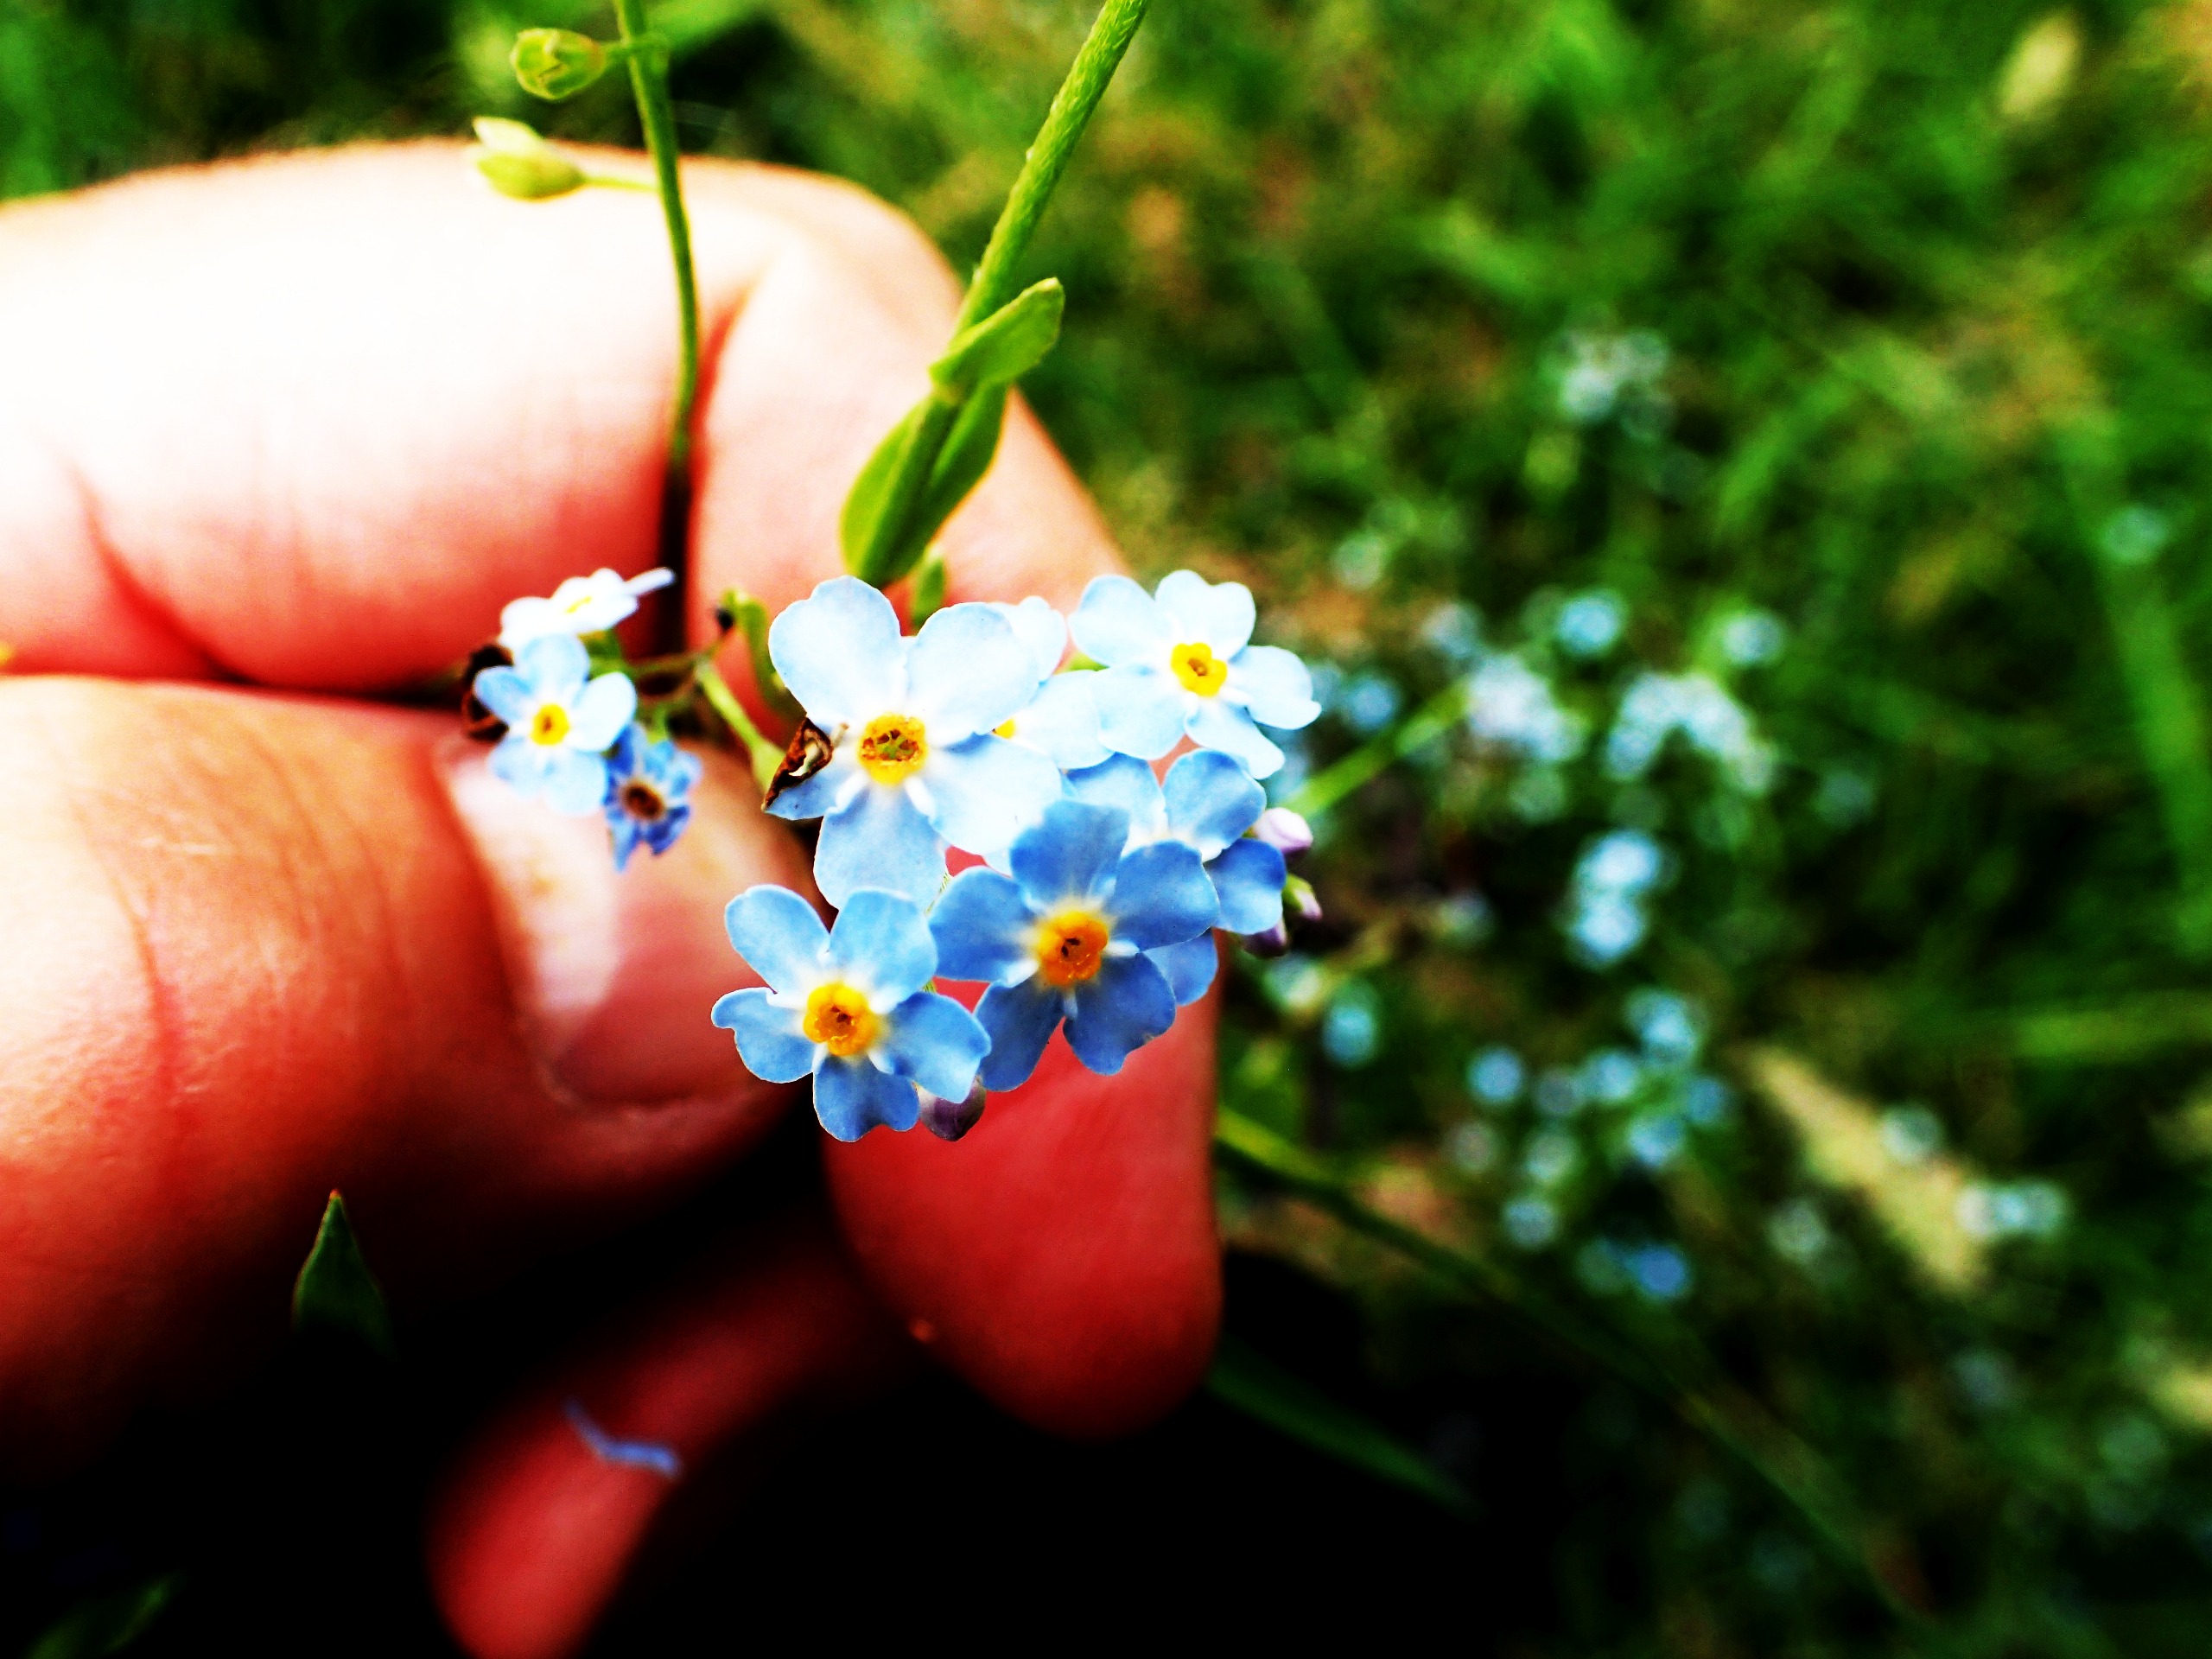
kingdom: Plantae
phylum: Tracheophyta
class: Magnoliopsida
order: Boraginales
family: Boraginaceae
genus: Myosotis
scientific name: Myosotis scorpioides
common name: Eng-forglemmigej
